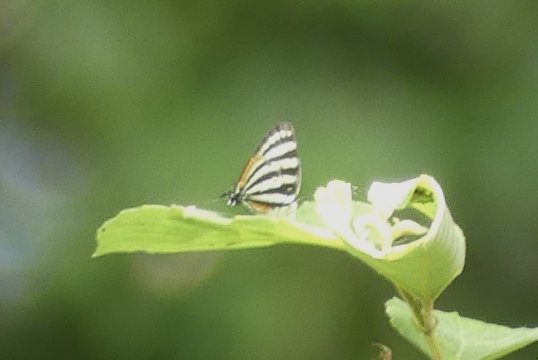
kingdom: Animalia
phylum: Arthropoda
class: Insecta
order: Lepidoptera
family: Lycaenidae
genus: Arawacus
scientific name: Arawacus lincoides
